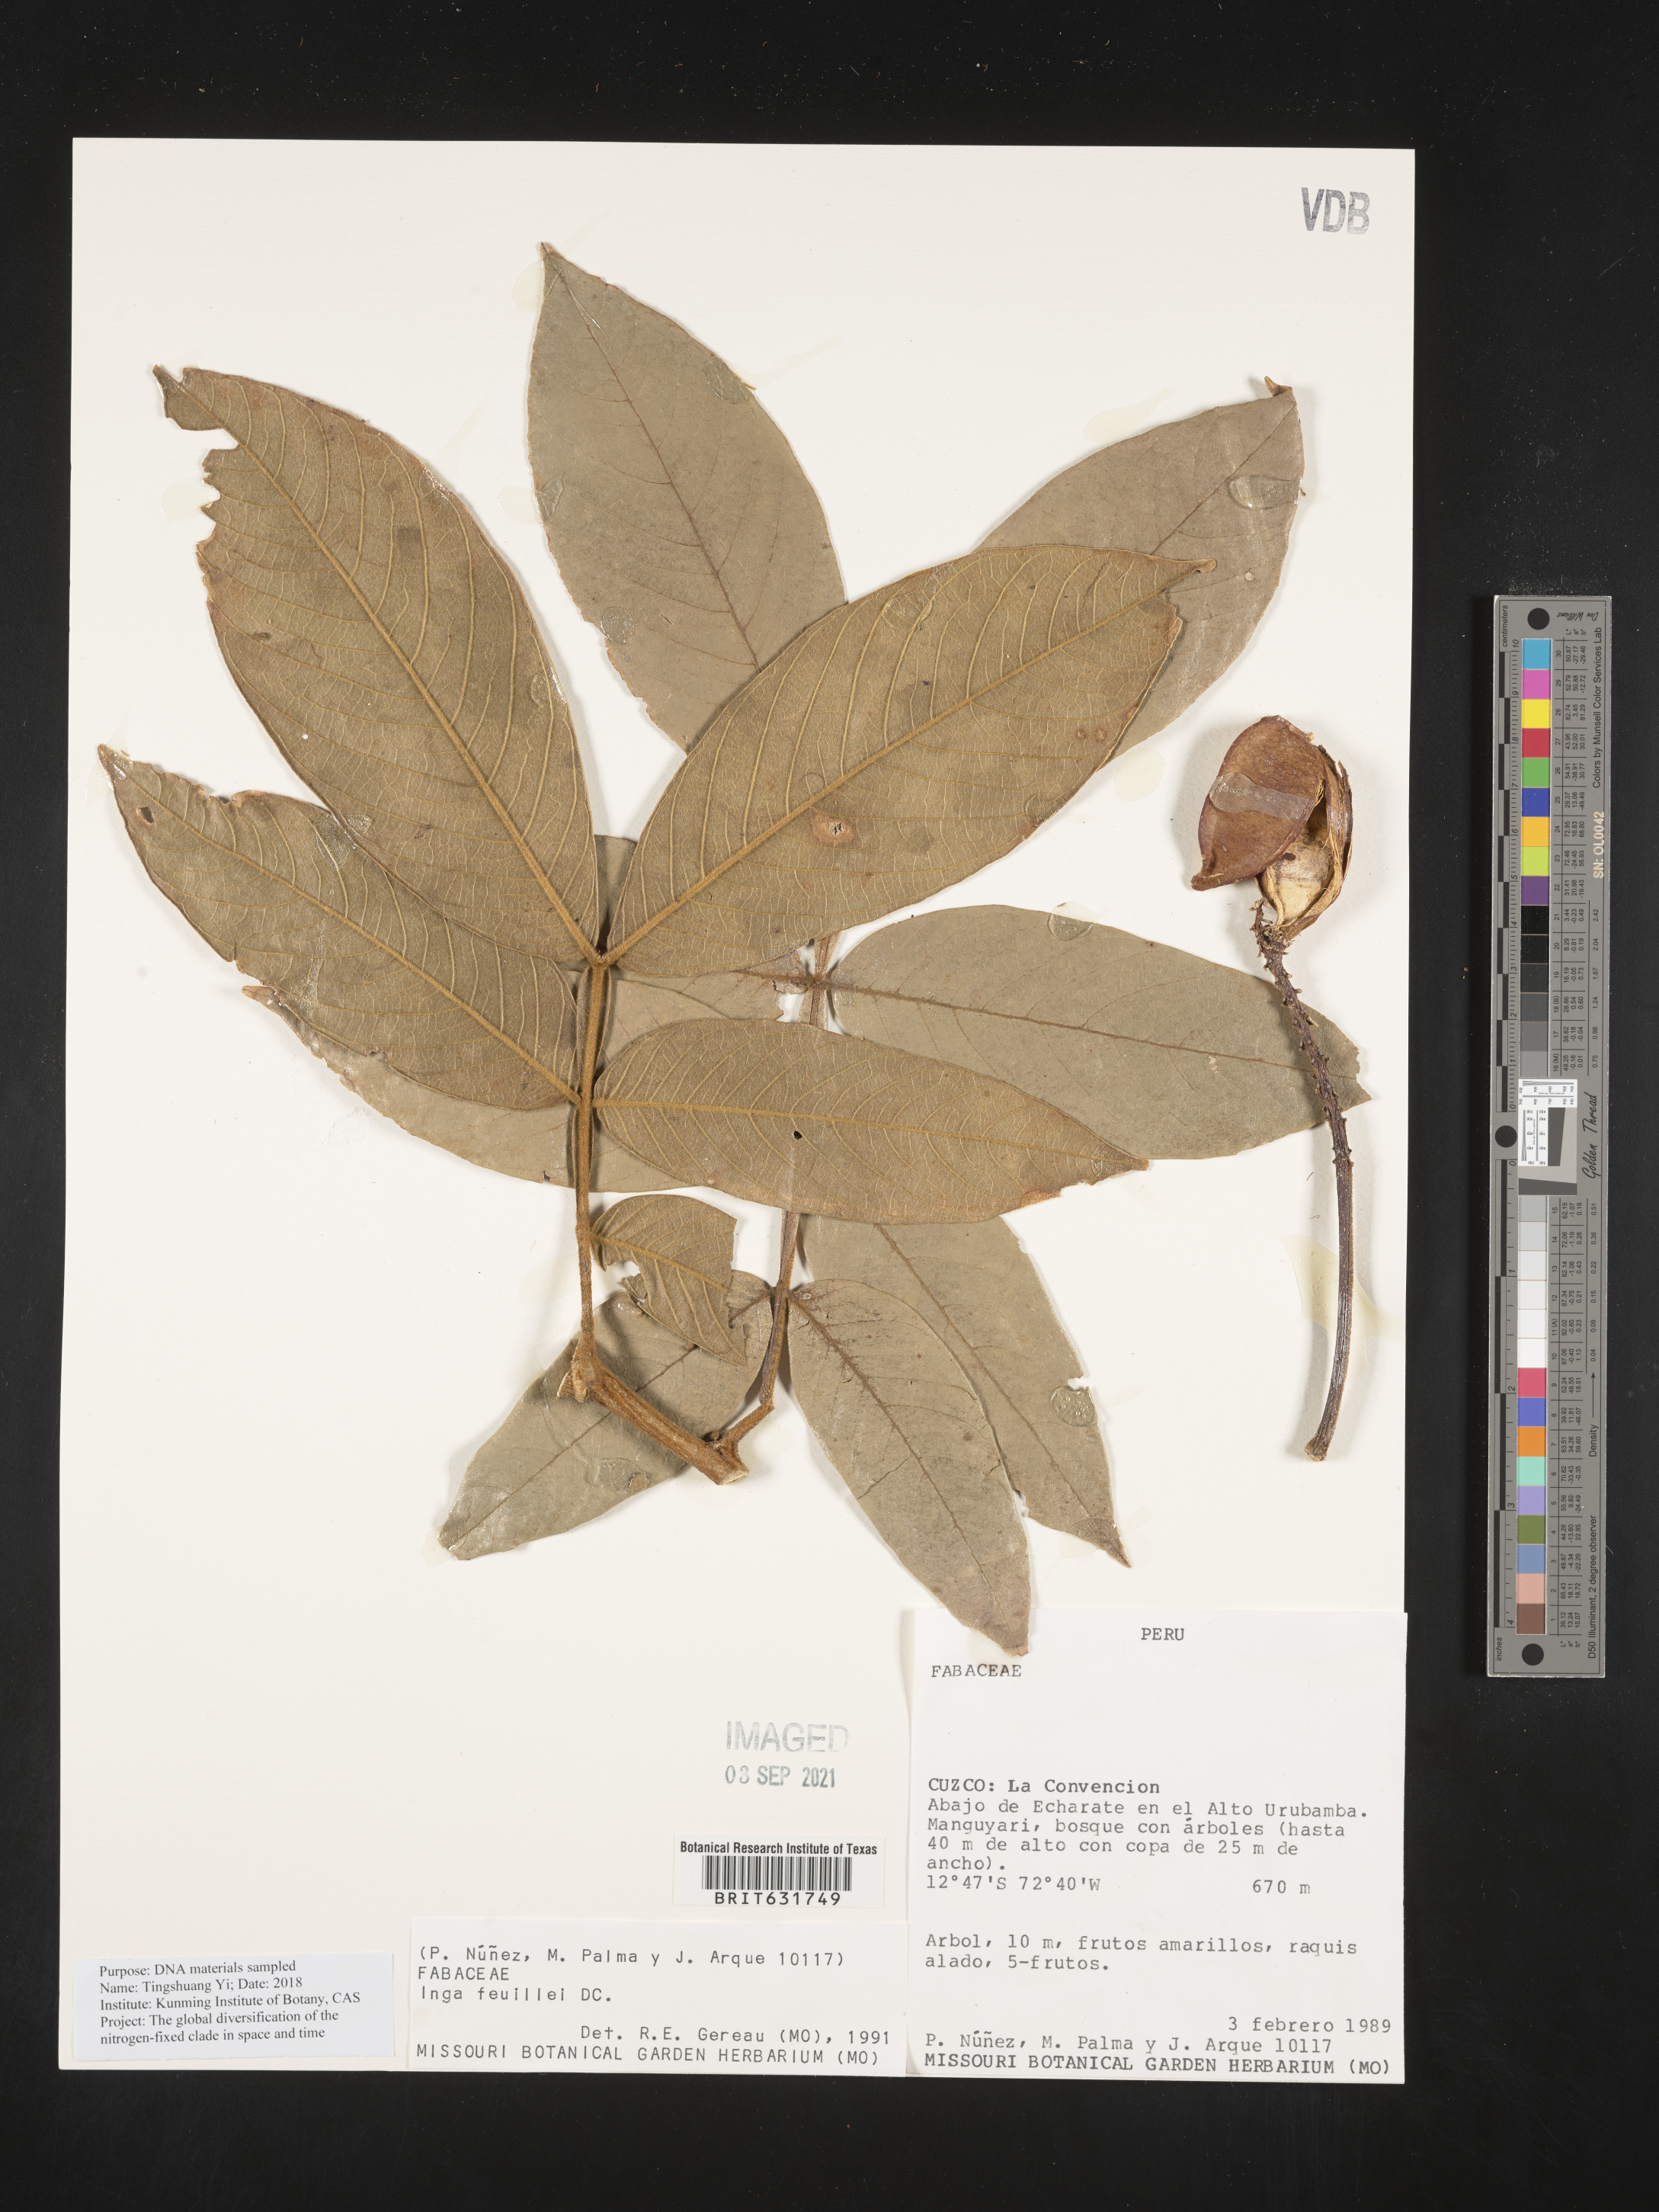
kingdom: Plantae
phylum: Tracheophyta
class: Magnoliopsida
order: Fabales
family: Fabaceae
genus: Inga
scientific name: Inga
